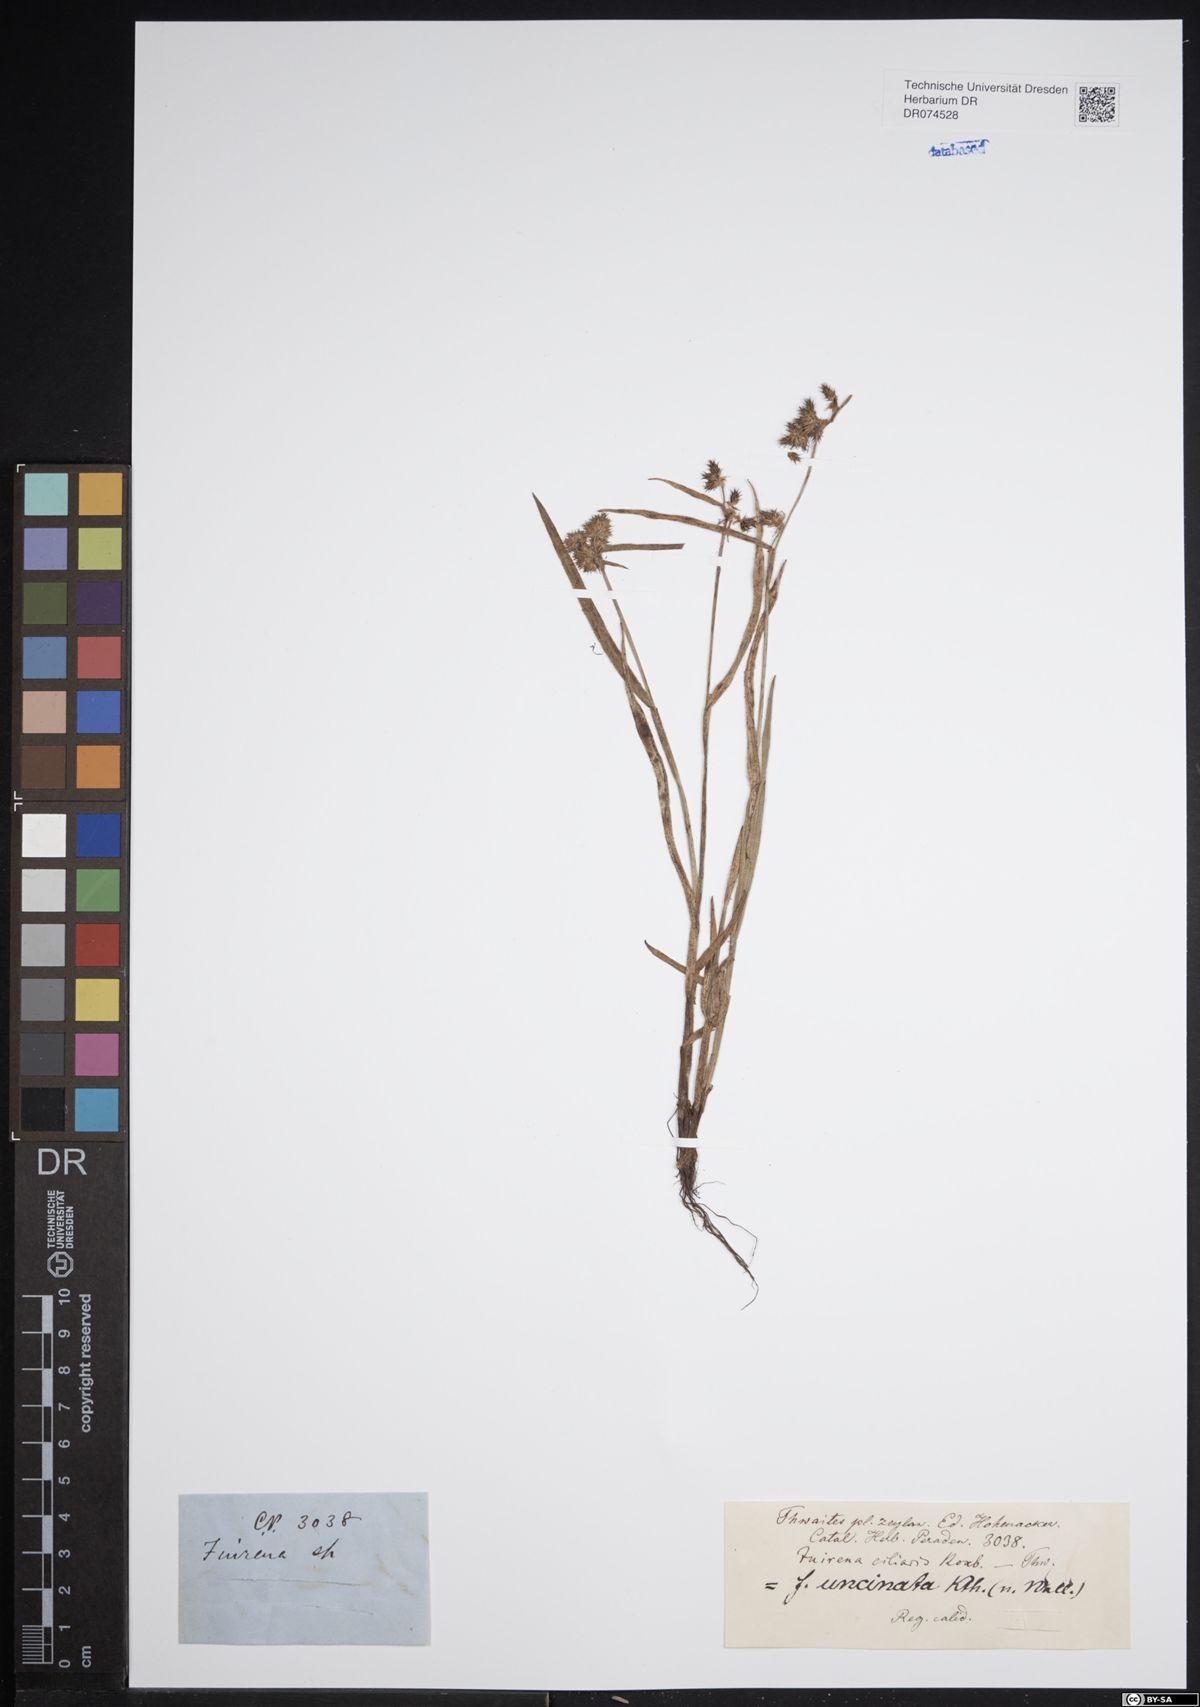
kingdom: Plantae
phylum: Tracheophyta
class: Liliopsida
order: Poales
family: Cyperaceae
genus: Fuirena
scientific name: Fuirena uncinata
